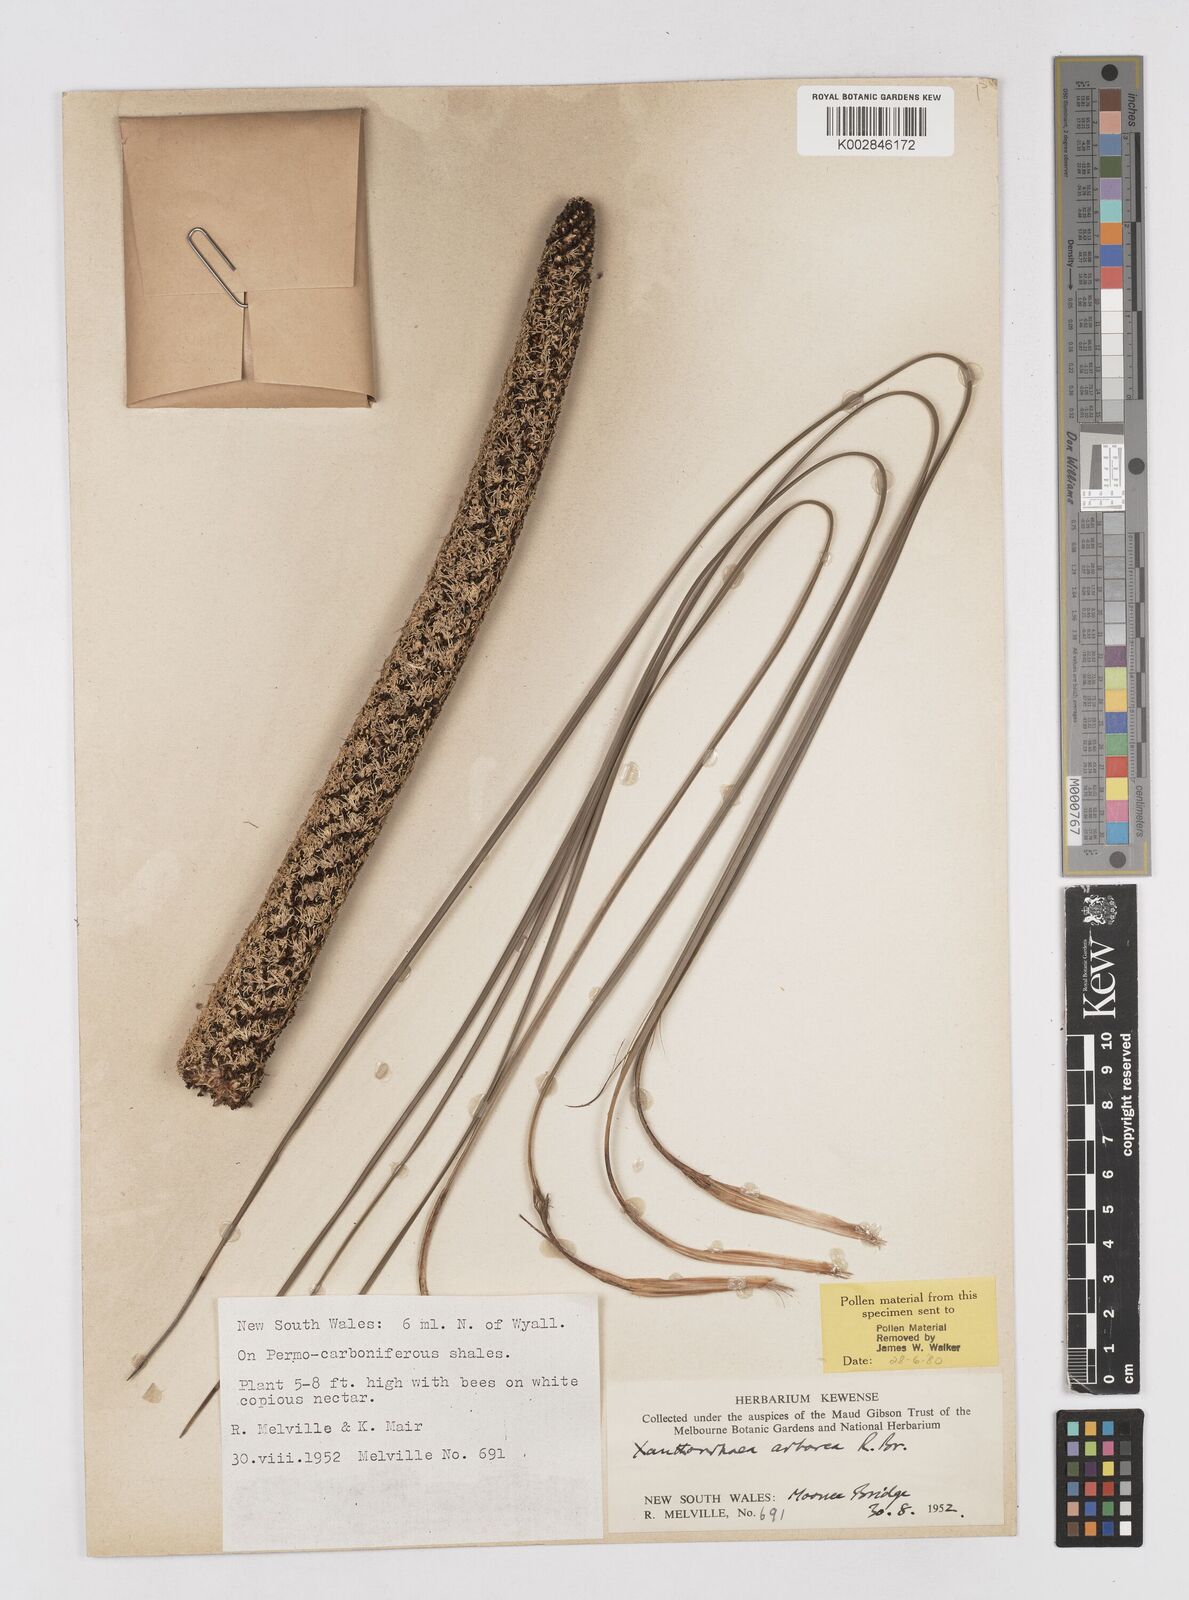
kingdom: Plantae
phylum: Tracheophyta
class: Liliopsida
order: Asparagales
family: Asphodelaceae
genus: Xanthorrhoea
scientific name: Xanthorrhoea arborea
